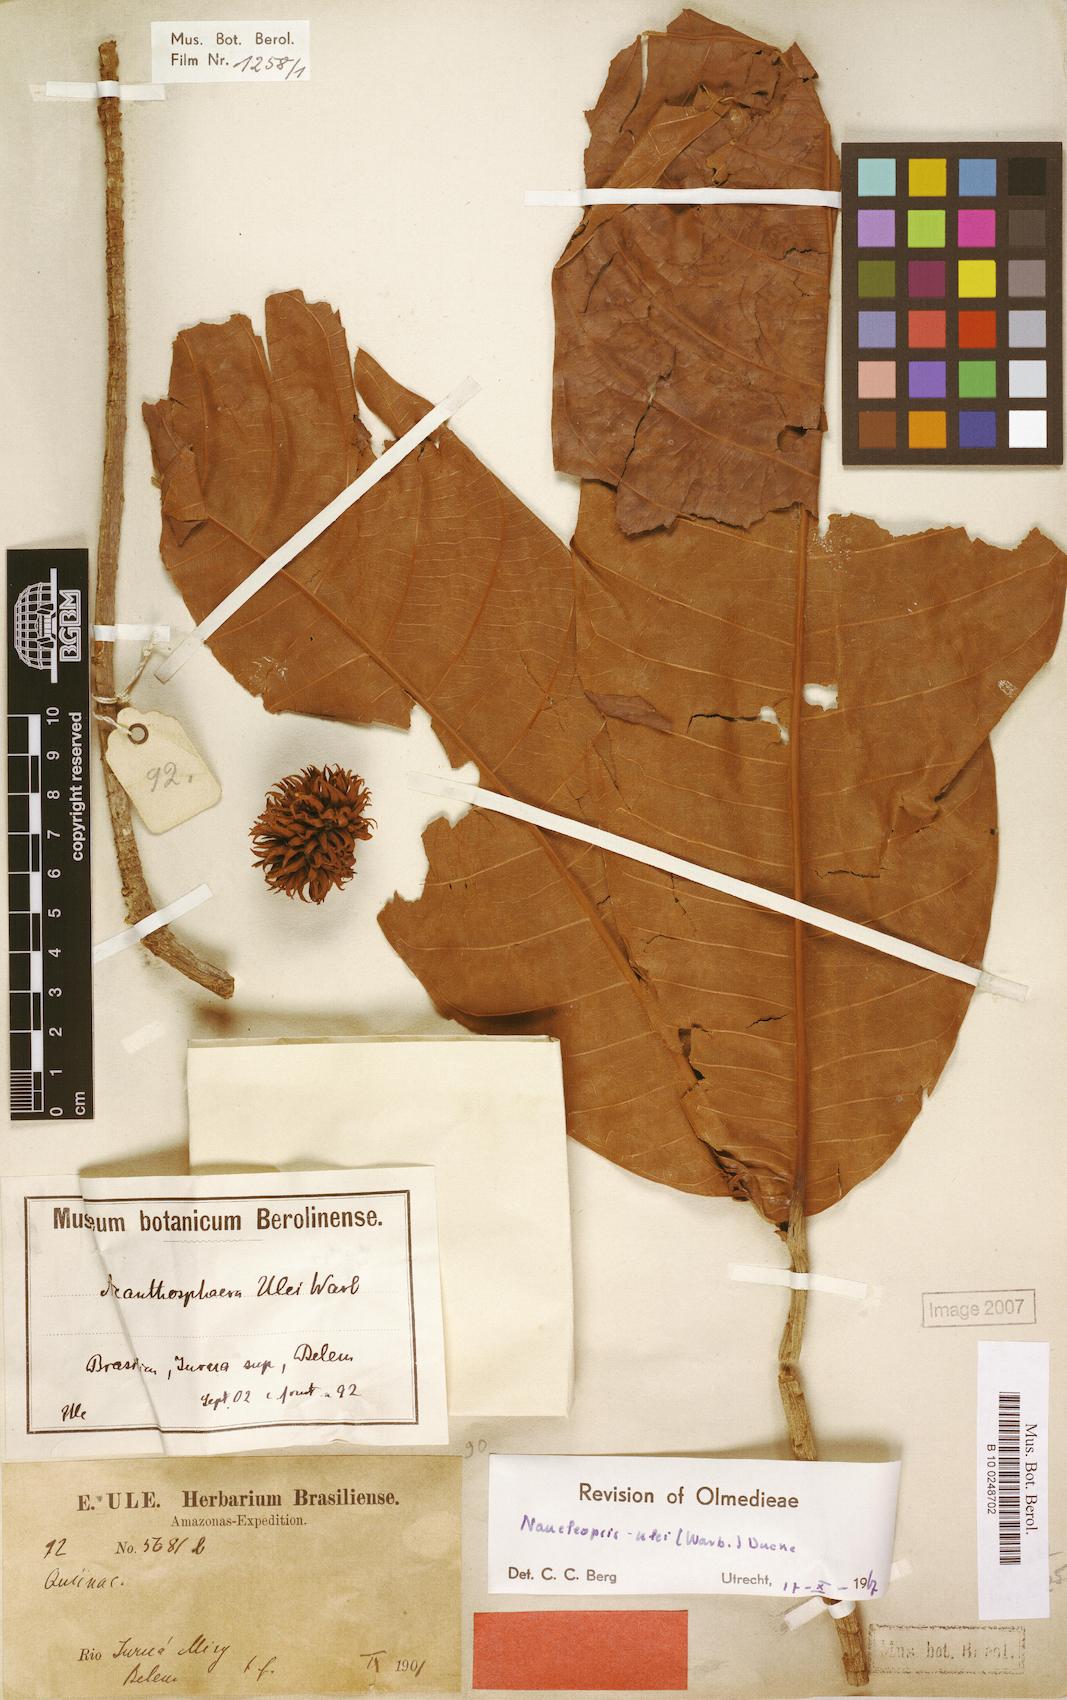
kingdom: Plantae
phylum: Tracheophyta
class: Magnoliopsida
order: Rosales
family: Moraceae
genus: Naucleopsis
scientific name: Naucleopsis ulei
